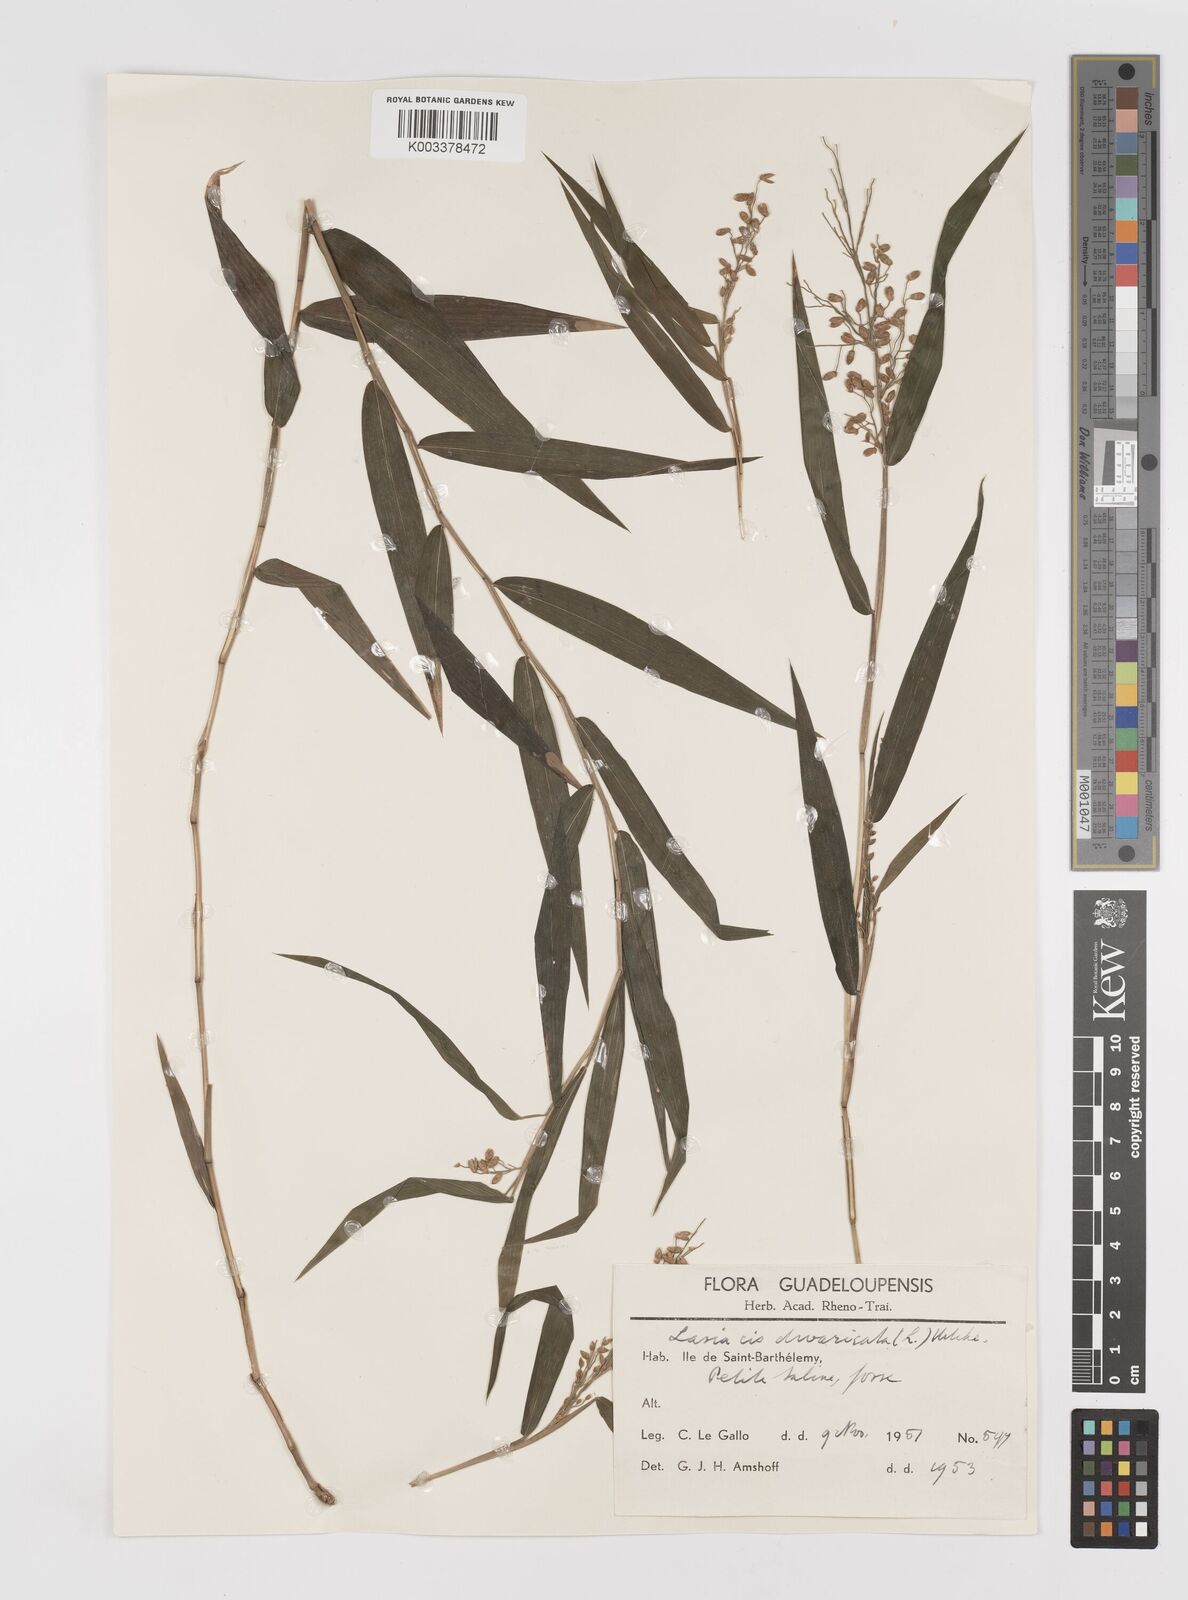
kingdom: Plantae
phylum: Tracheophyta
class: Liliopsida
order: Poales
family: Poaceae
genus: Lasiacis
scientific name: Lasiacis divaricata
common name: Smallcane
